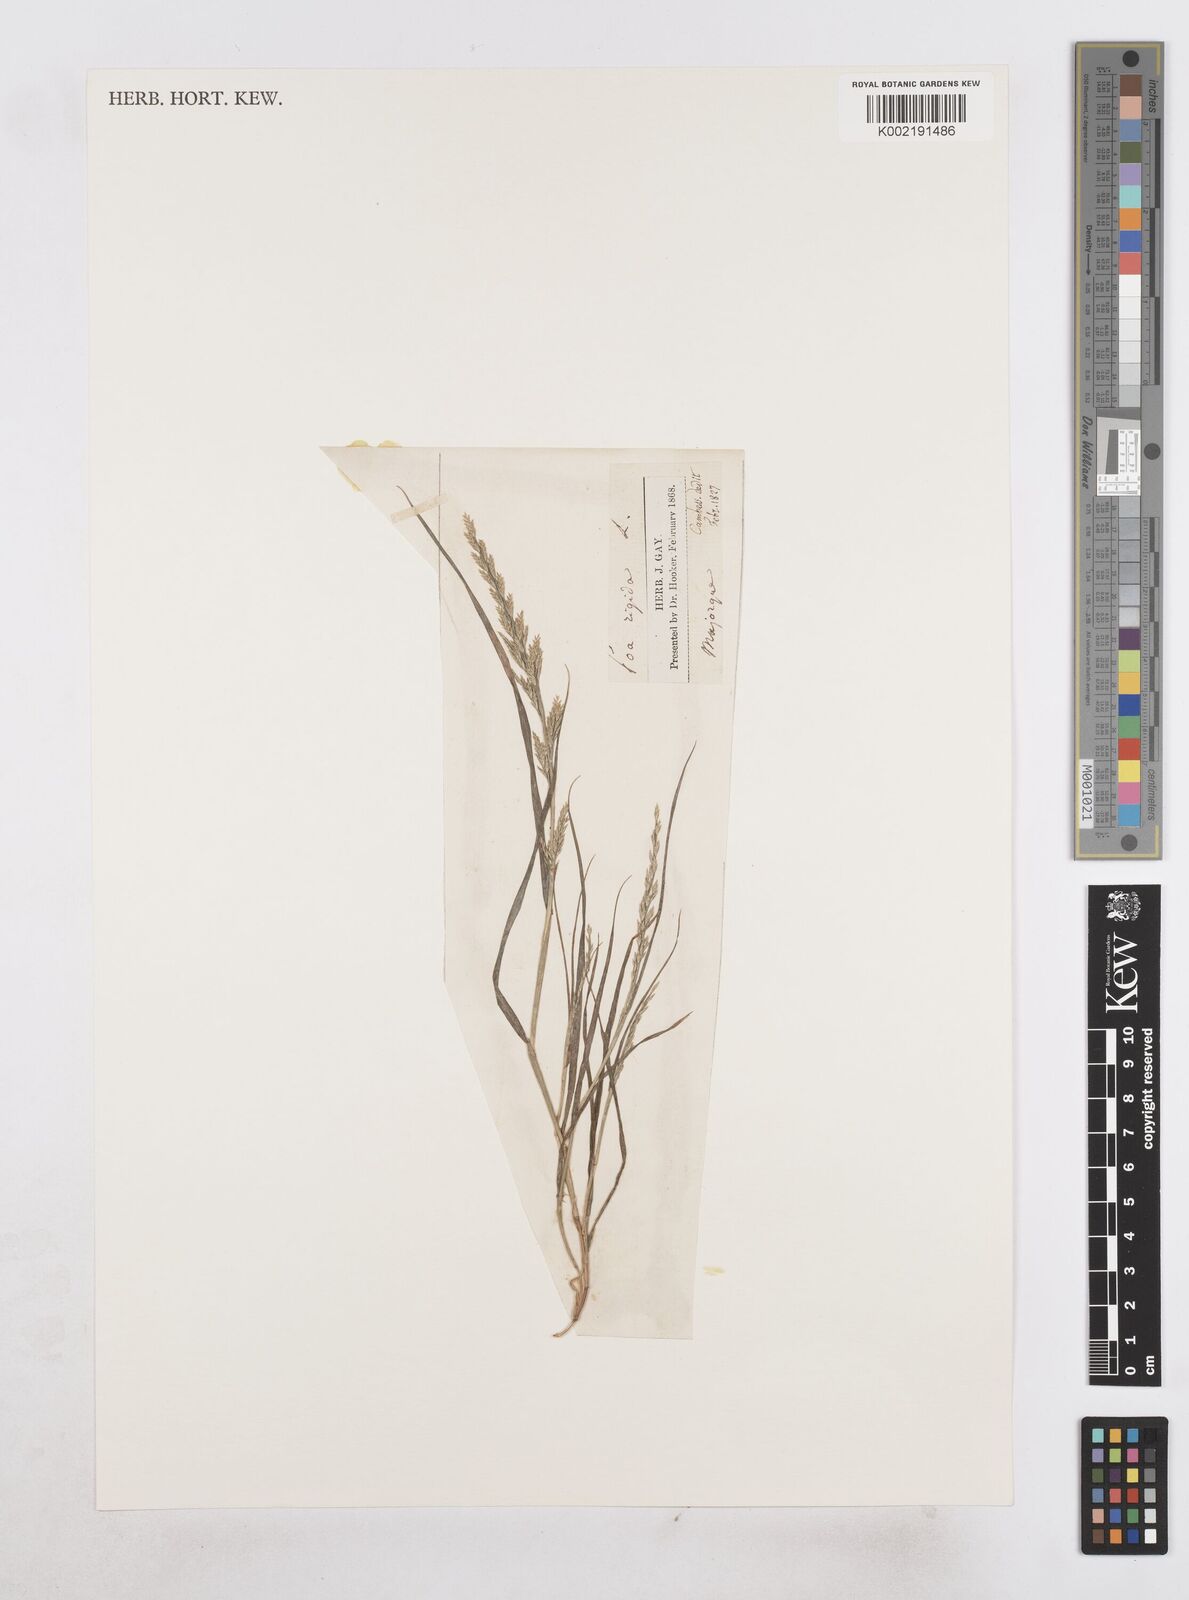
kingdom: Plantae
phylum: Tracheophyta
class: Liliopsida
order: Poales
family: Poaceae
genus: Catapodium
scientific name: Catapodium rigidum
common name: Fern-grass
